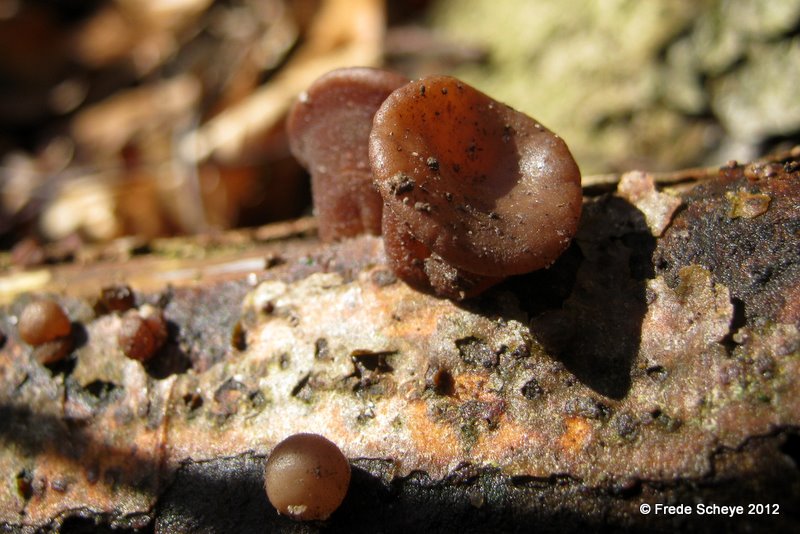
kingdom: Fungi
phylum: Basidiomycota
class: Agaricomycetes
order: Auriculariales
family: Auriculariaceae
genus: Auricularia
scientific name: Auricularia auricula-judae
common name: almindelig judasøre
